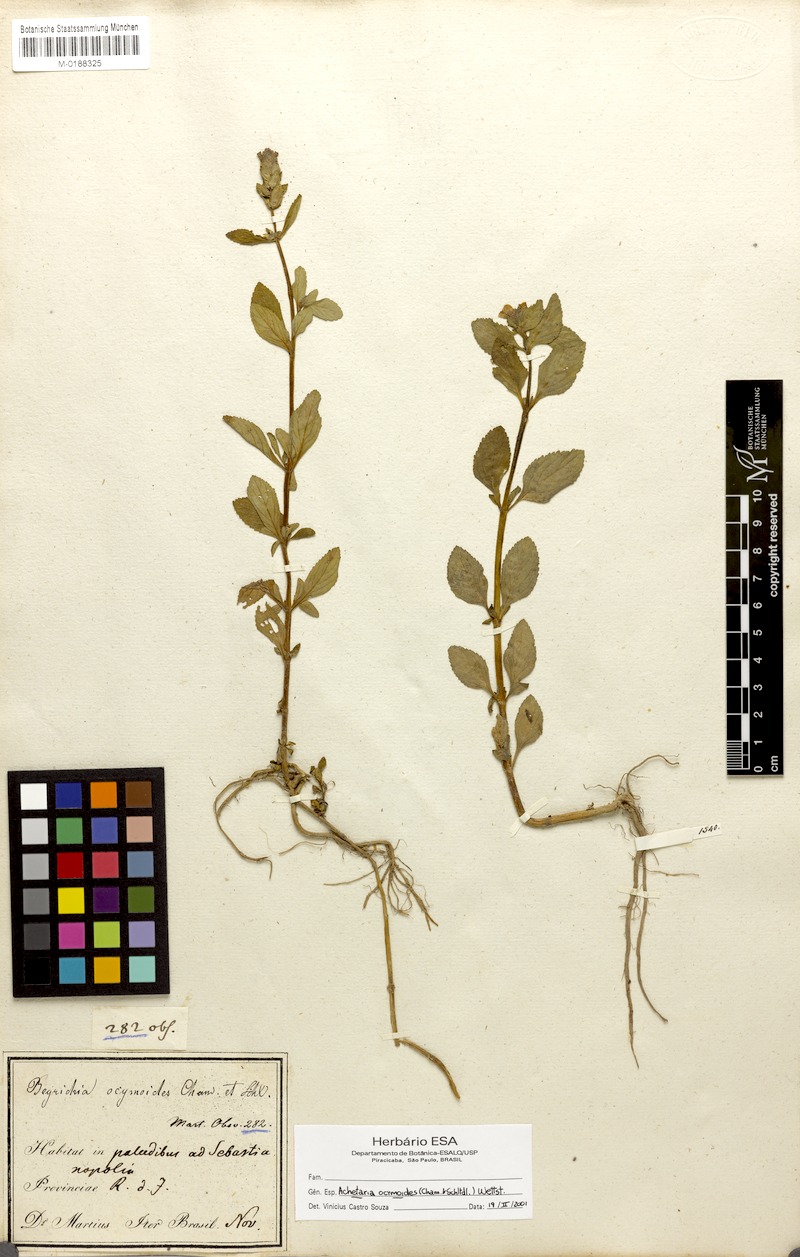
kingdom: Plantae
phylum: Tracheophyta
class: Magnoliopsida
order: Lamiales
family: Plantaginaceae
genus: Matourea
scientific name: Matourea ocymoides
